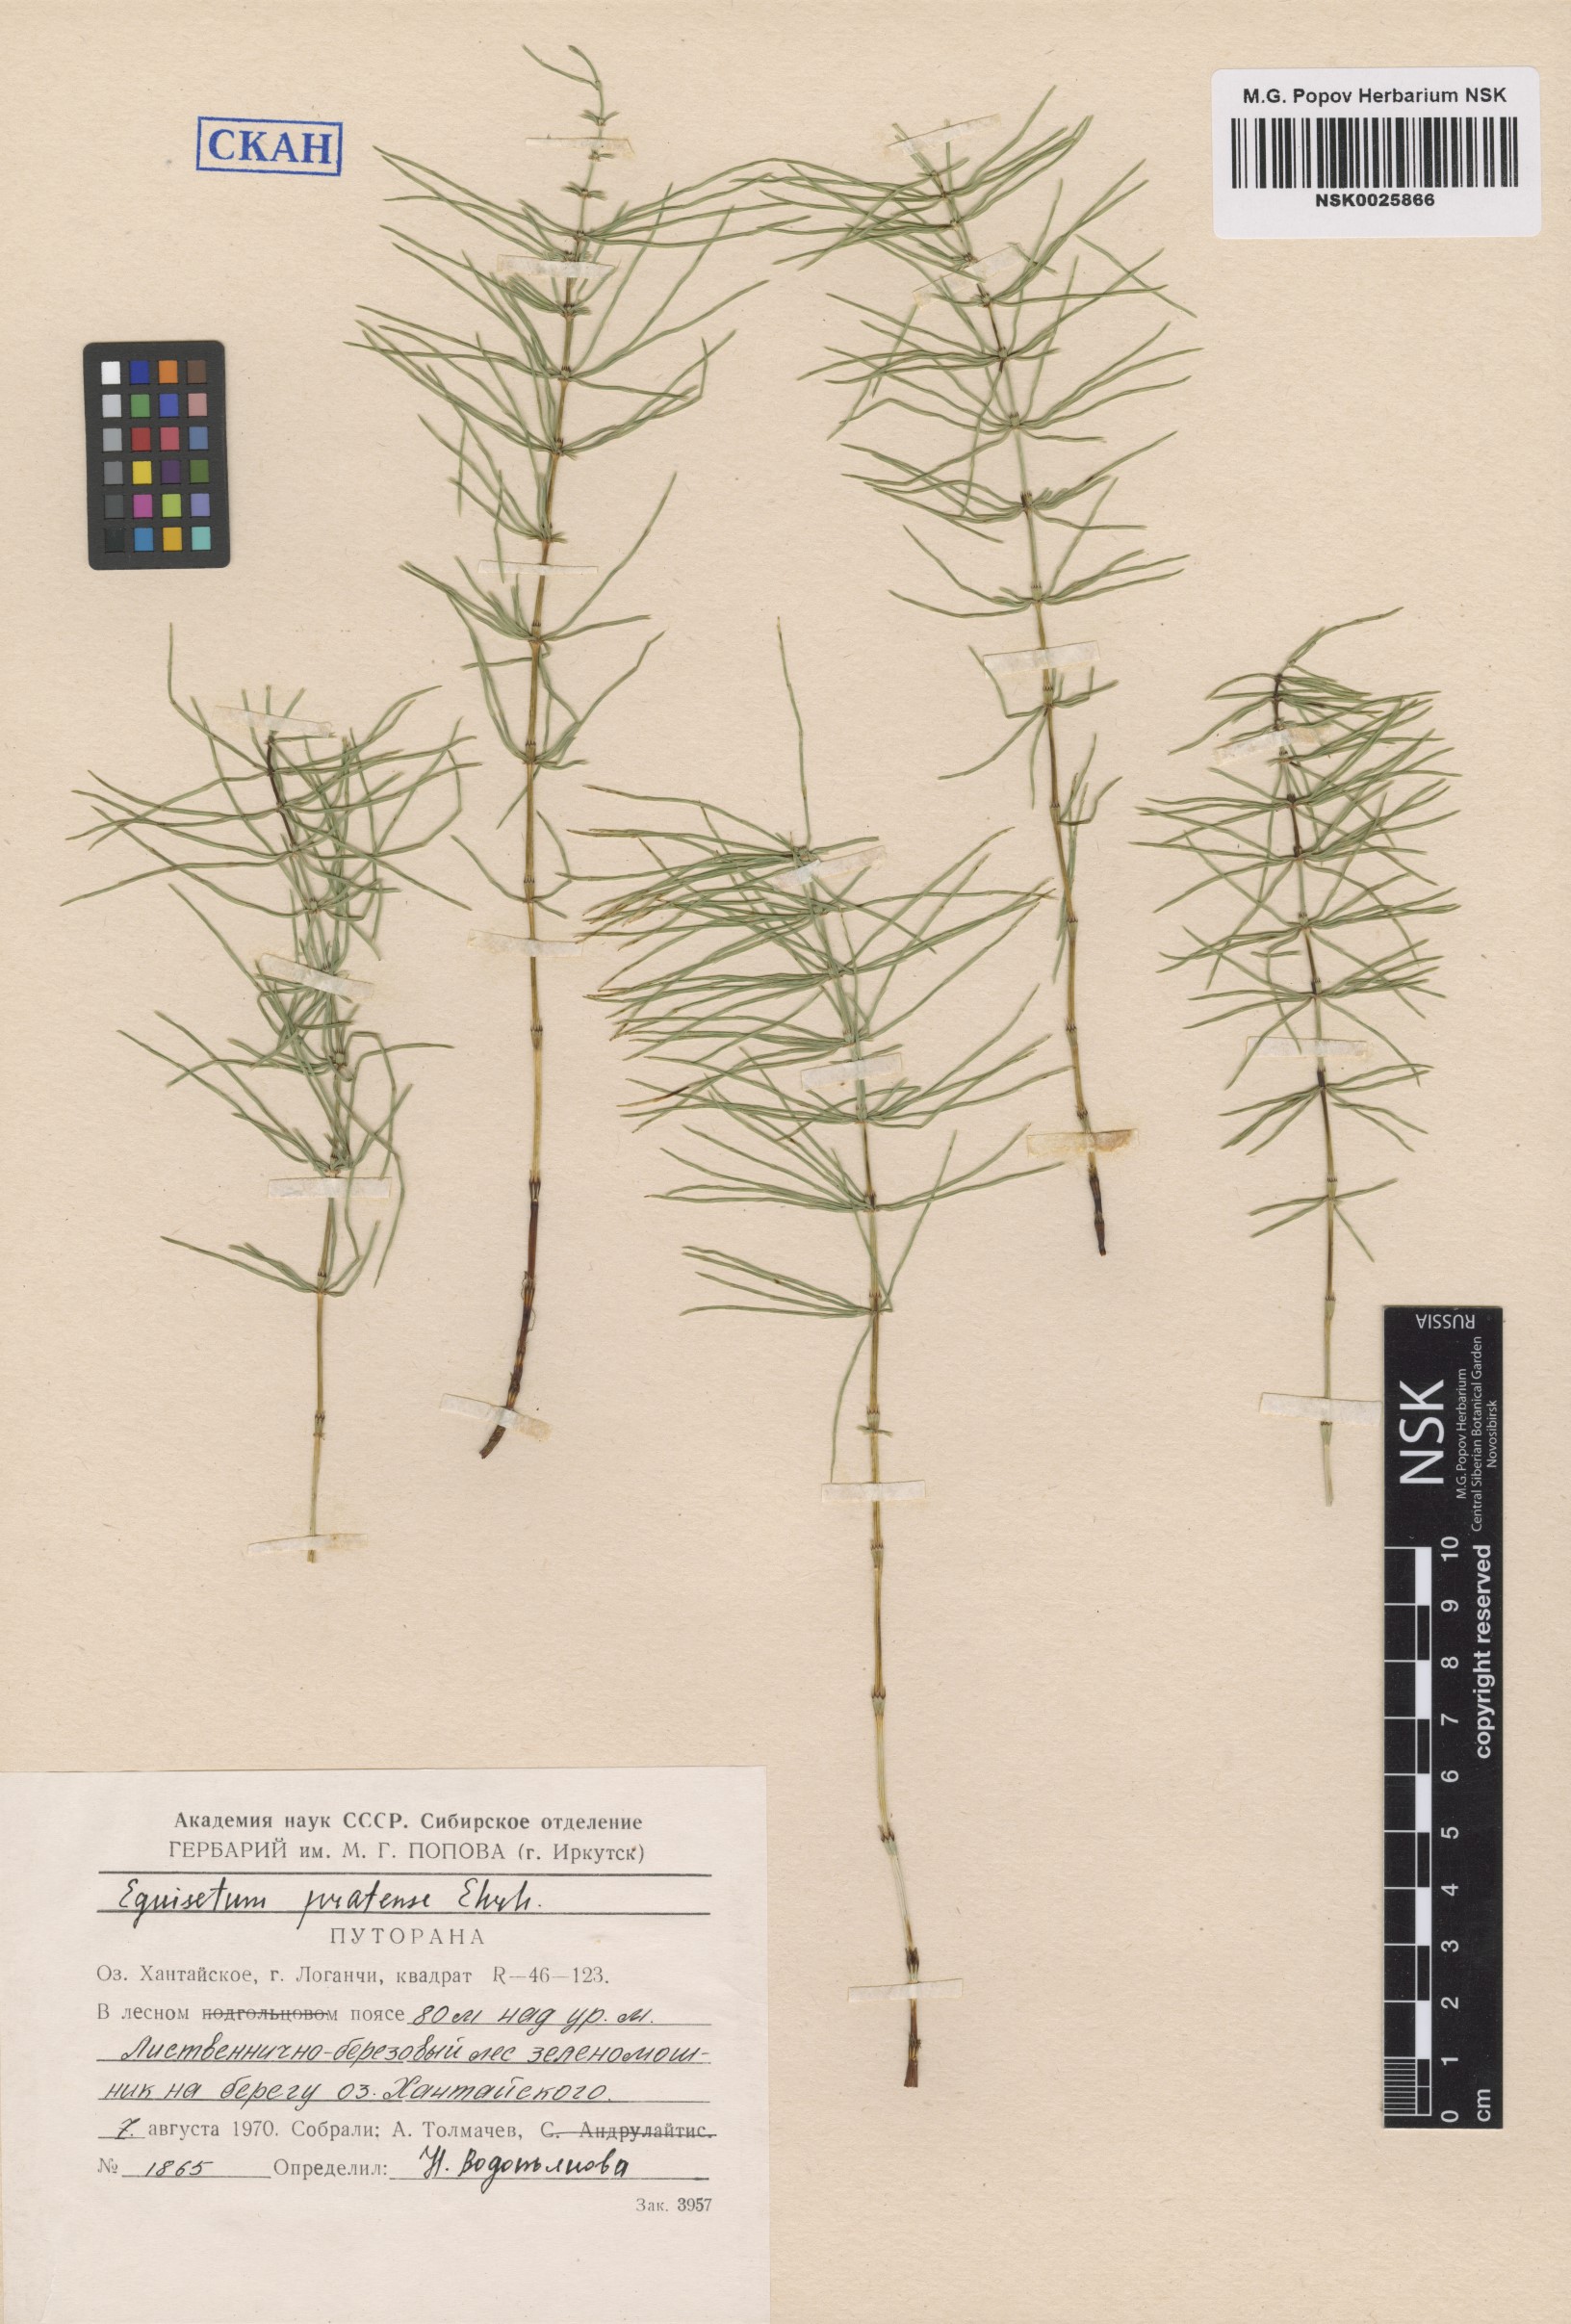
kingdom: Plantae
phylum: Tracheophyta
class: Polypodiopsida
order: Equisetales
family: Equisetaceae
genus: Equisetum
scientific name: Equisetum pratense
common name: Meadow horsetail
